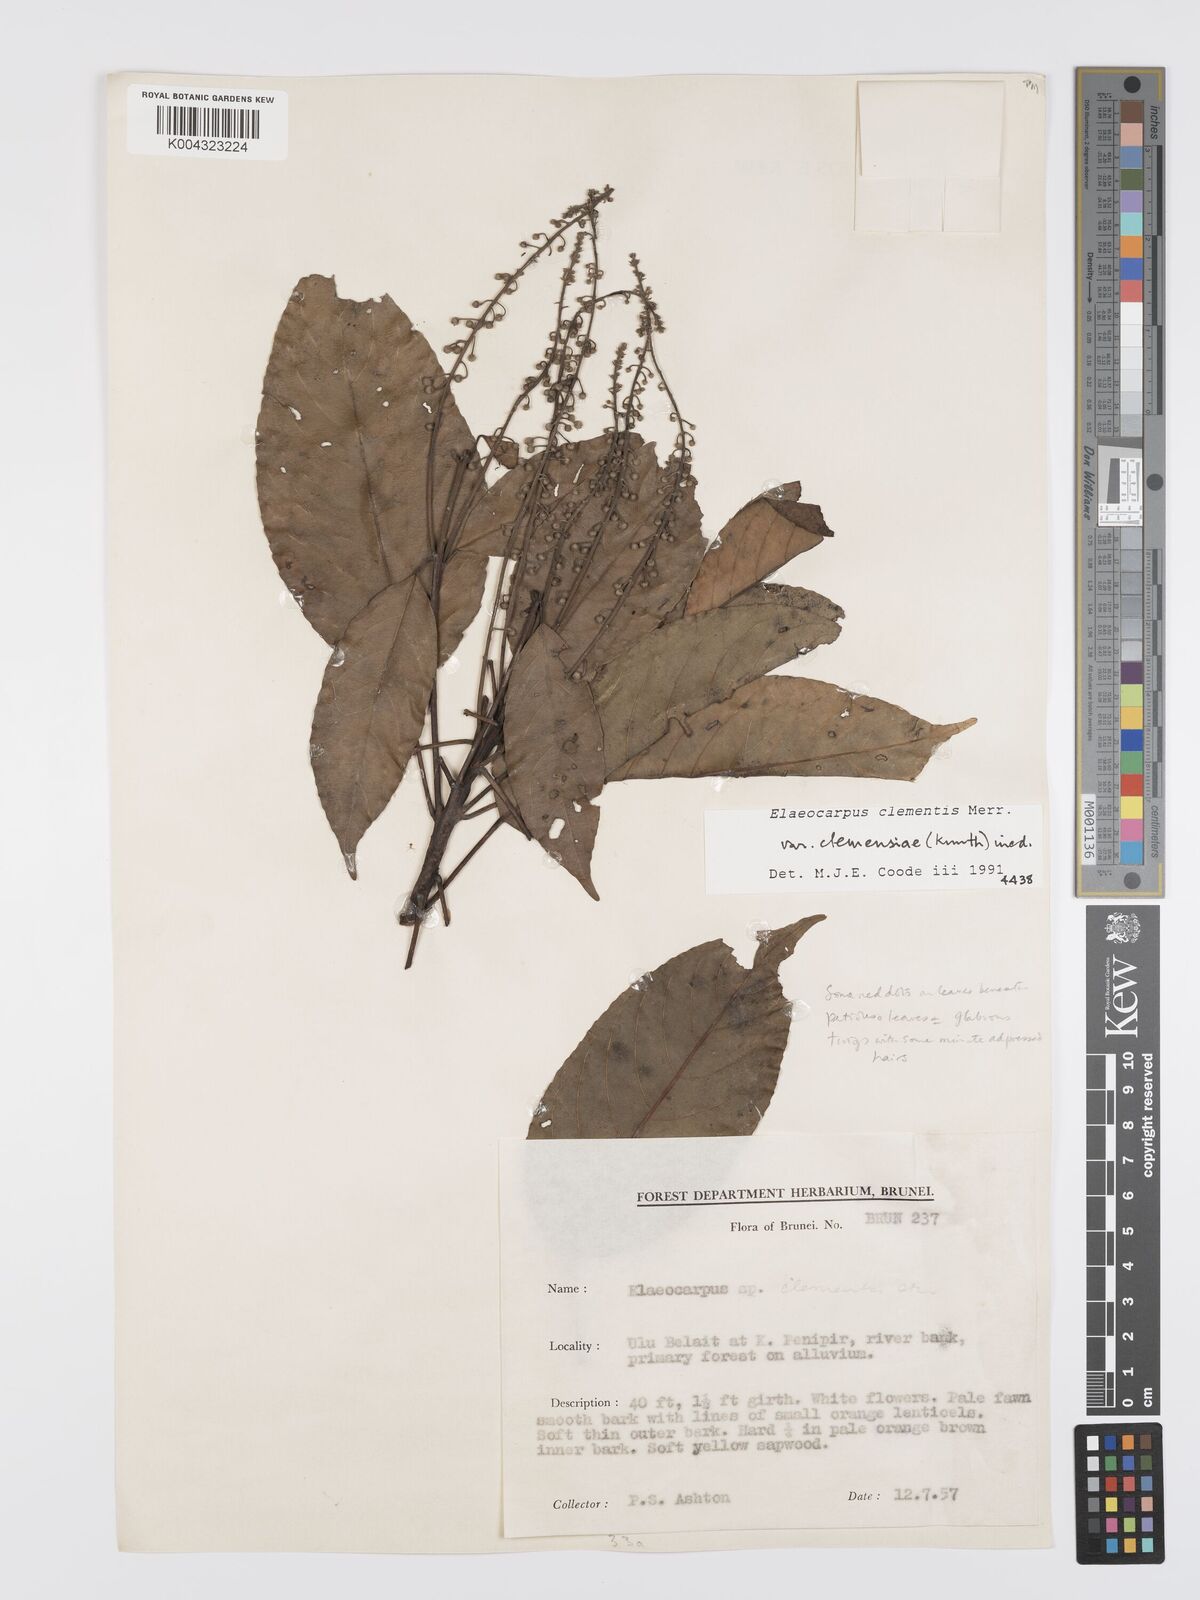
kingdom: Plantae
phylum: Tracheophyta
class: Magnoliopsida
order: Oxalidales
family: Elaeocarpaceae
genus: Elaeocarpus
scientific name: Elaeocarpus clementis
